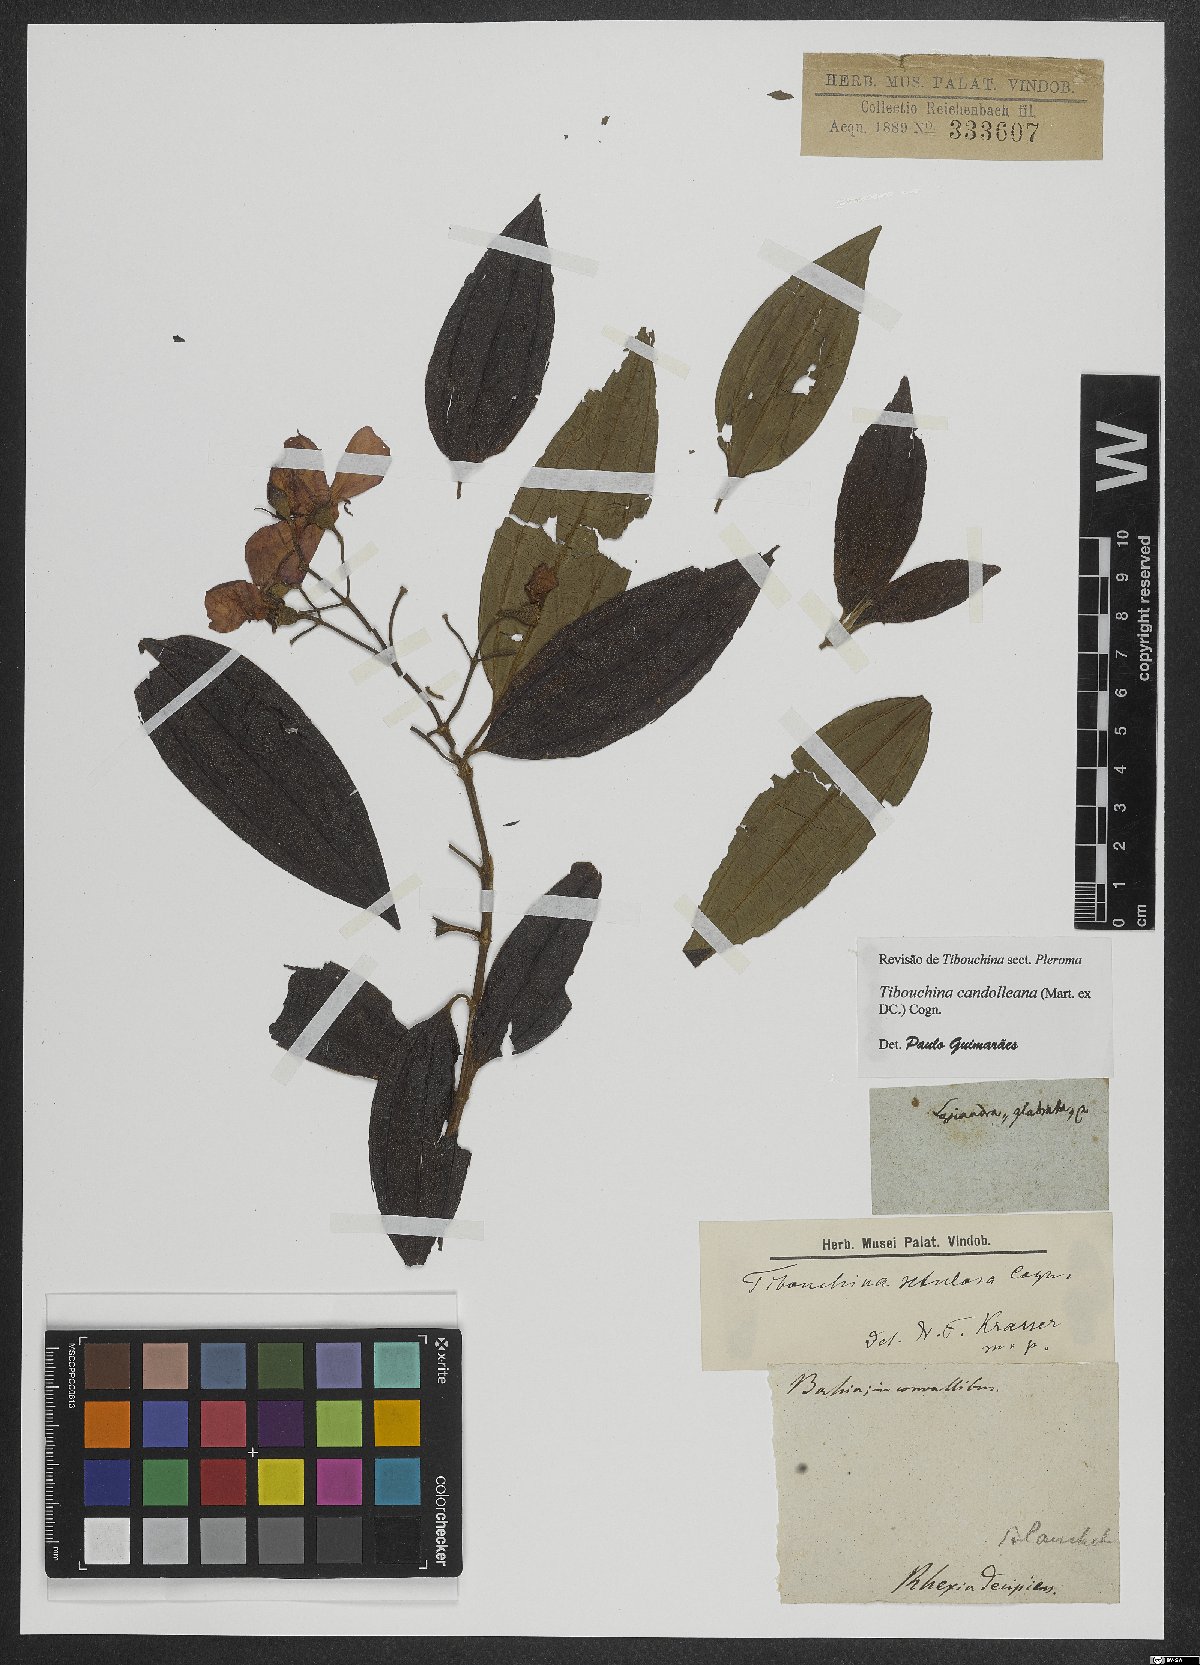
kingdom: Plantae
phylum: Tracheophyta
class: Magnoliopsida
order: Myrtales
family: Melastomataceae
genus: Pleroma
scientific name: Pleroma candolleanum
